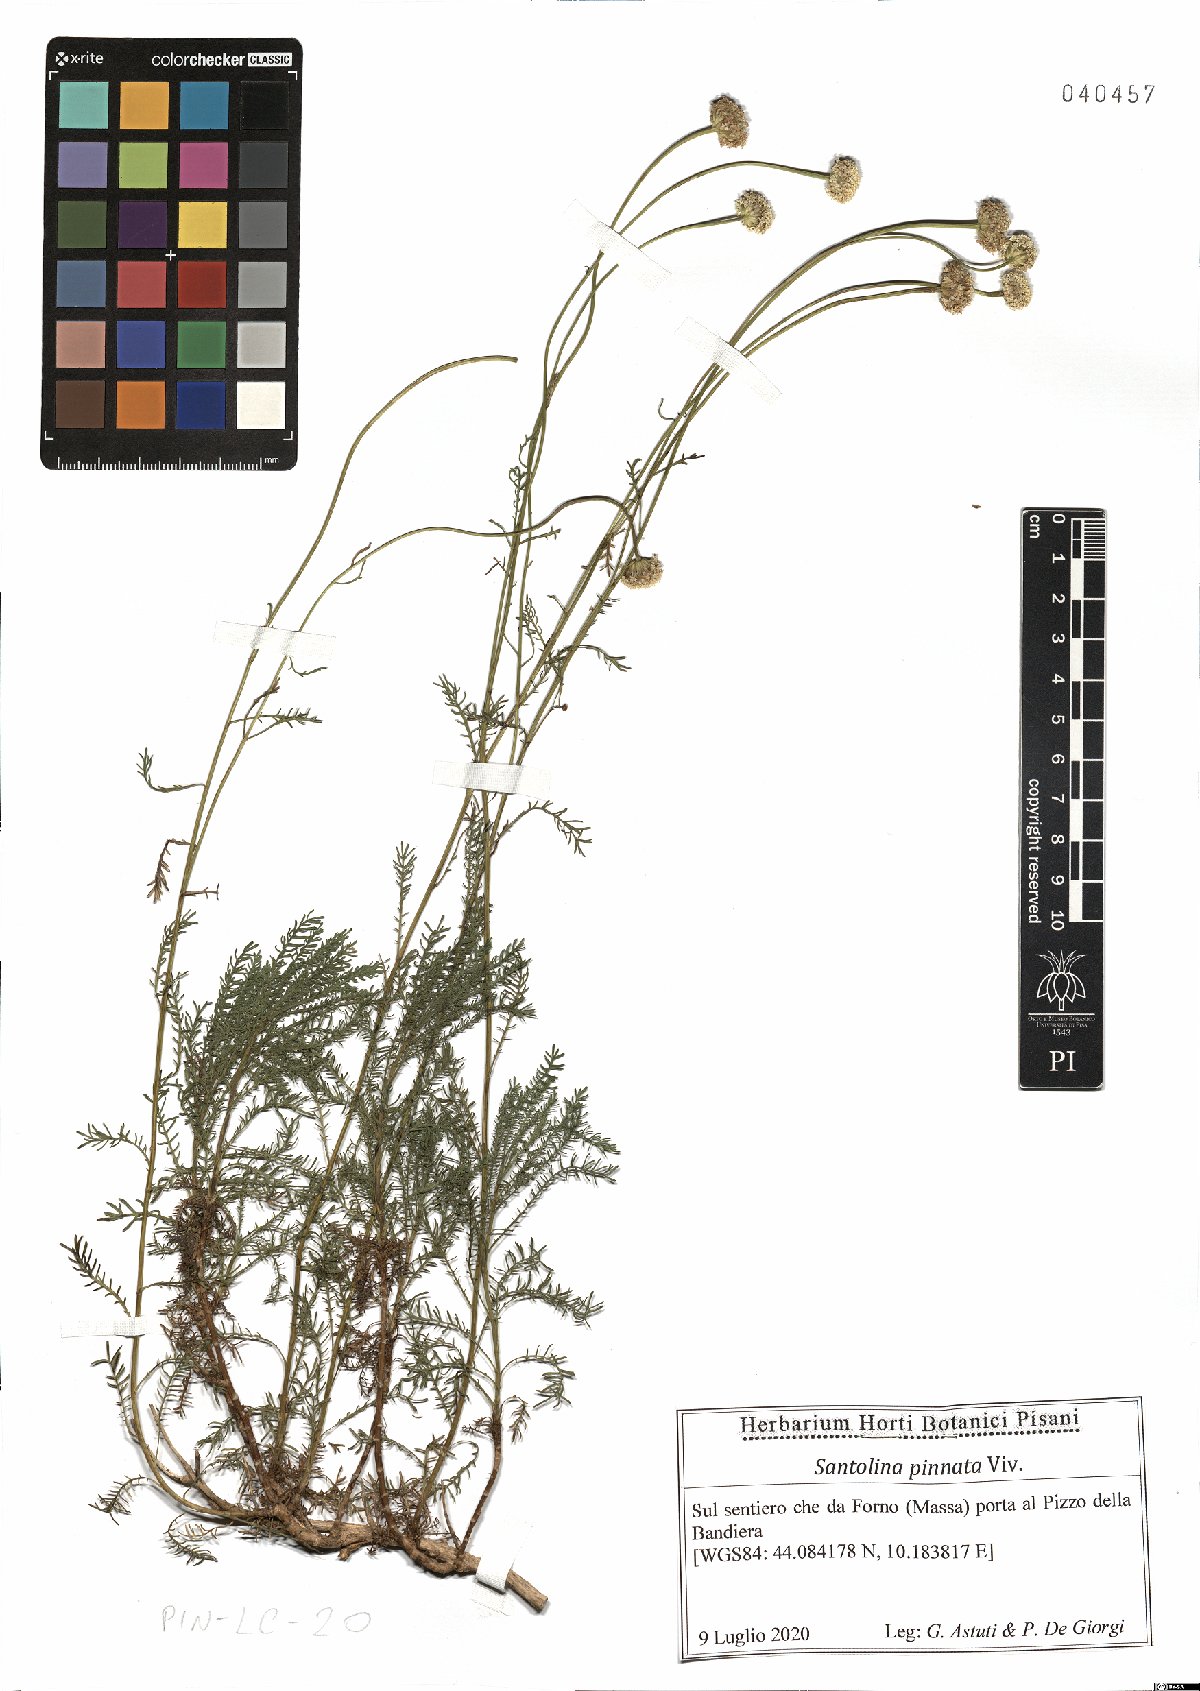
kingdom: Plantae
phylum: Tracheophyta
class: Magnoliopsida
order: Asterales
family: Asteraceae
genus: Santolina
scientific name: Santolina pinnata
